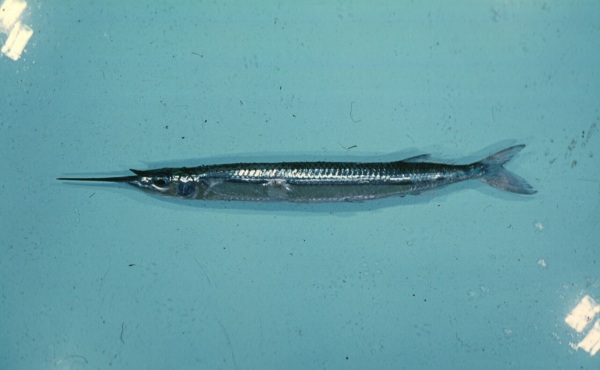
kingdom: Animalia
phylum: Chordata
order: Beloniformes
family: Hemiramphidae
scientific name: Hemiramphidae
